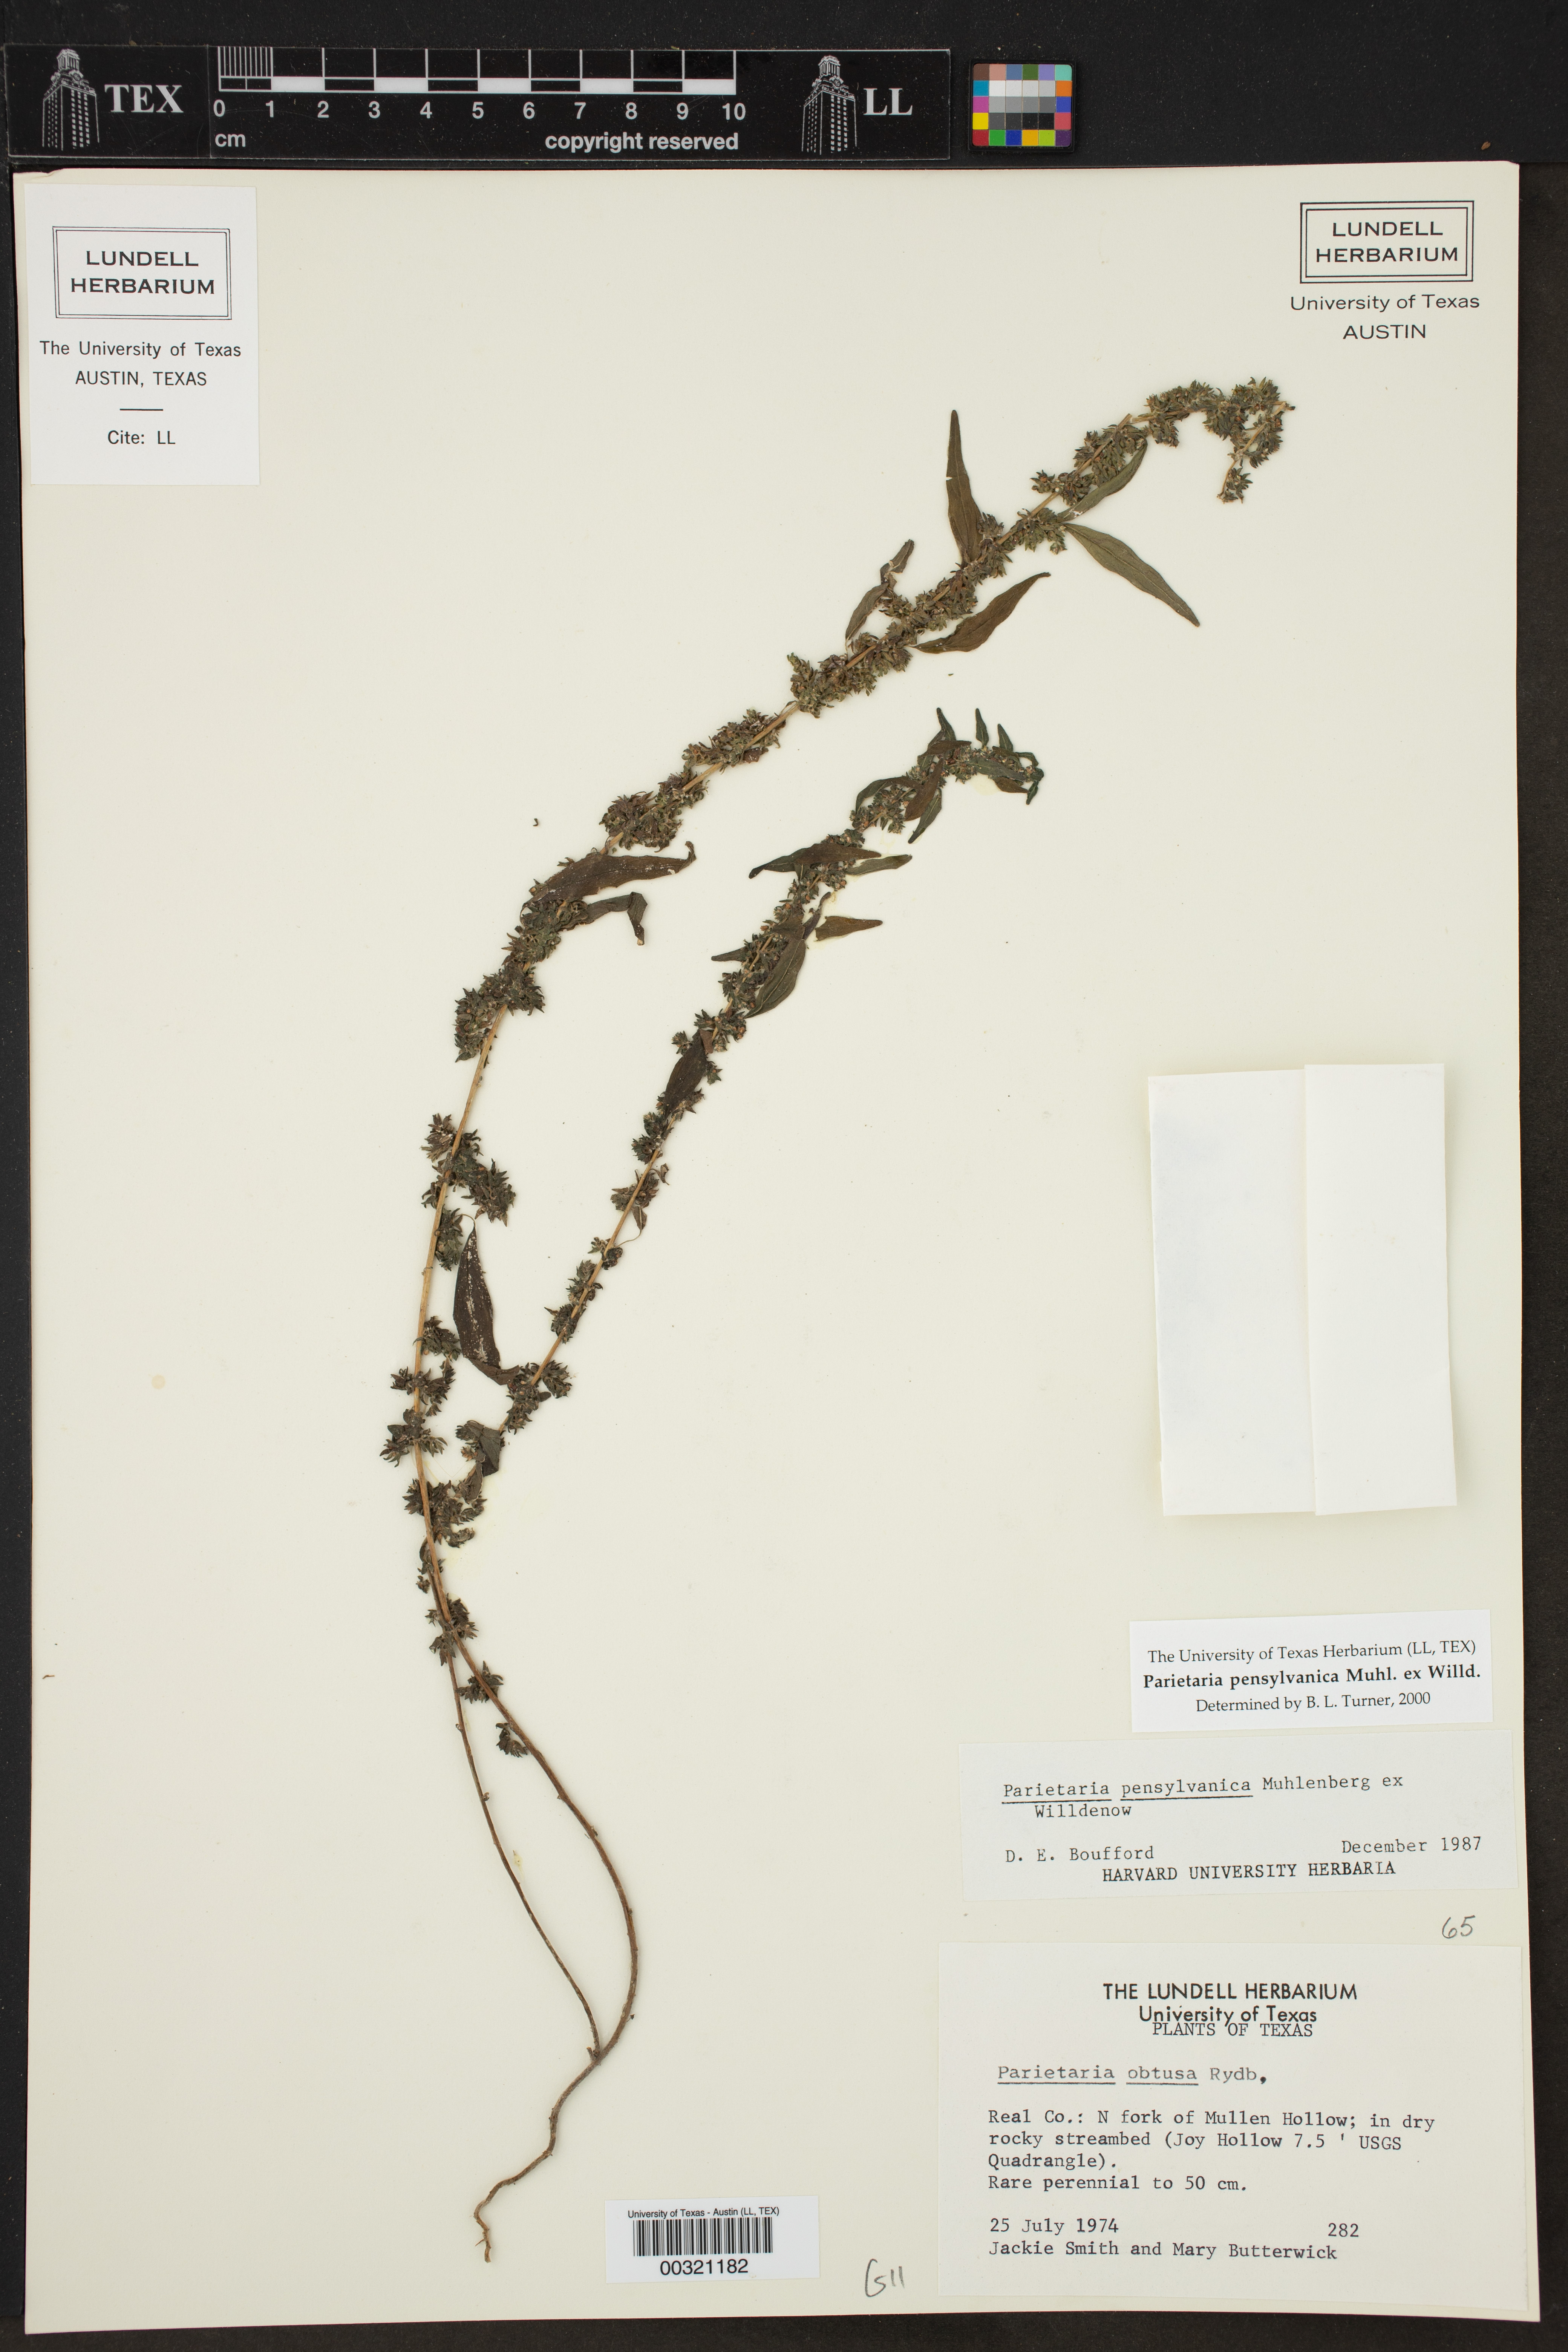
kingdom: Plantae
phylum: Tracheophyta
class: Magnoliopsida
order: Rosales
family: Urticaceae
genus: Parietaria
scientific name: Parietaria pensylvanica
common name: Pennsylvania pellitory
